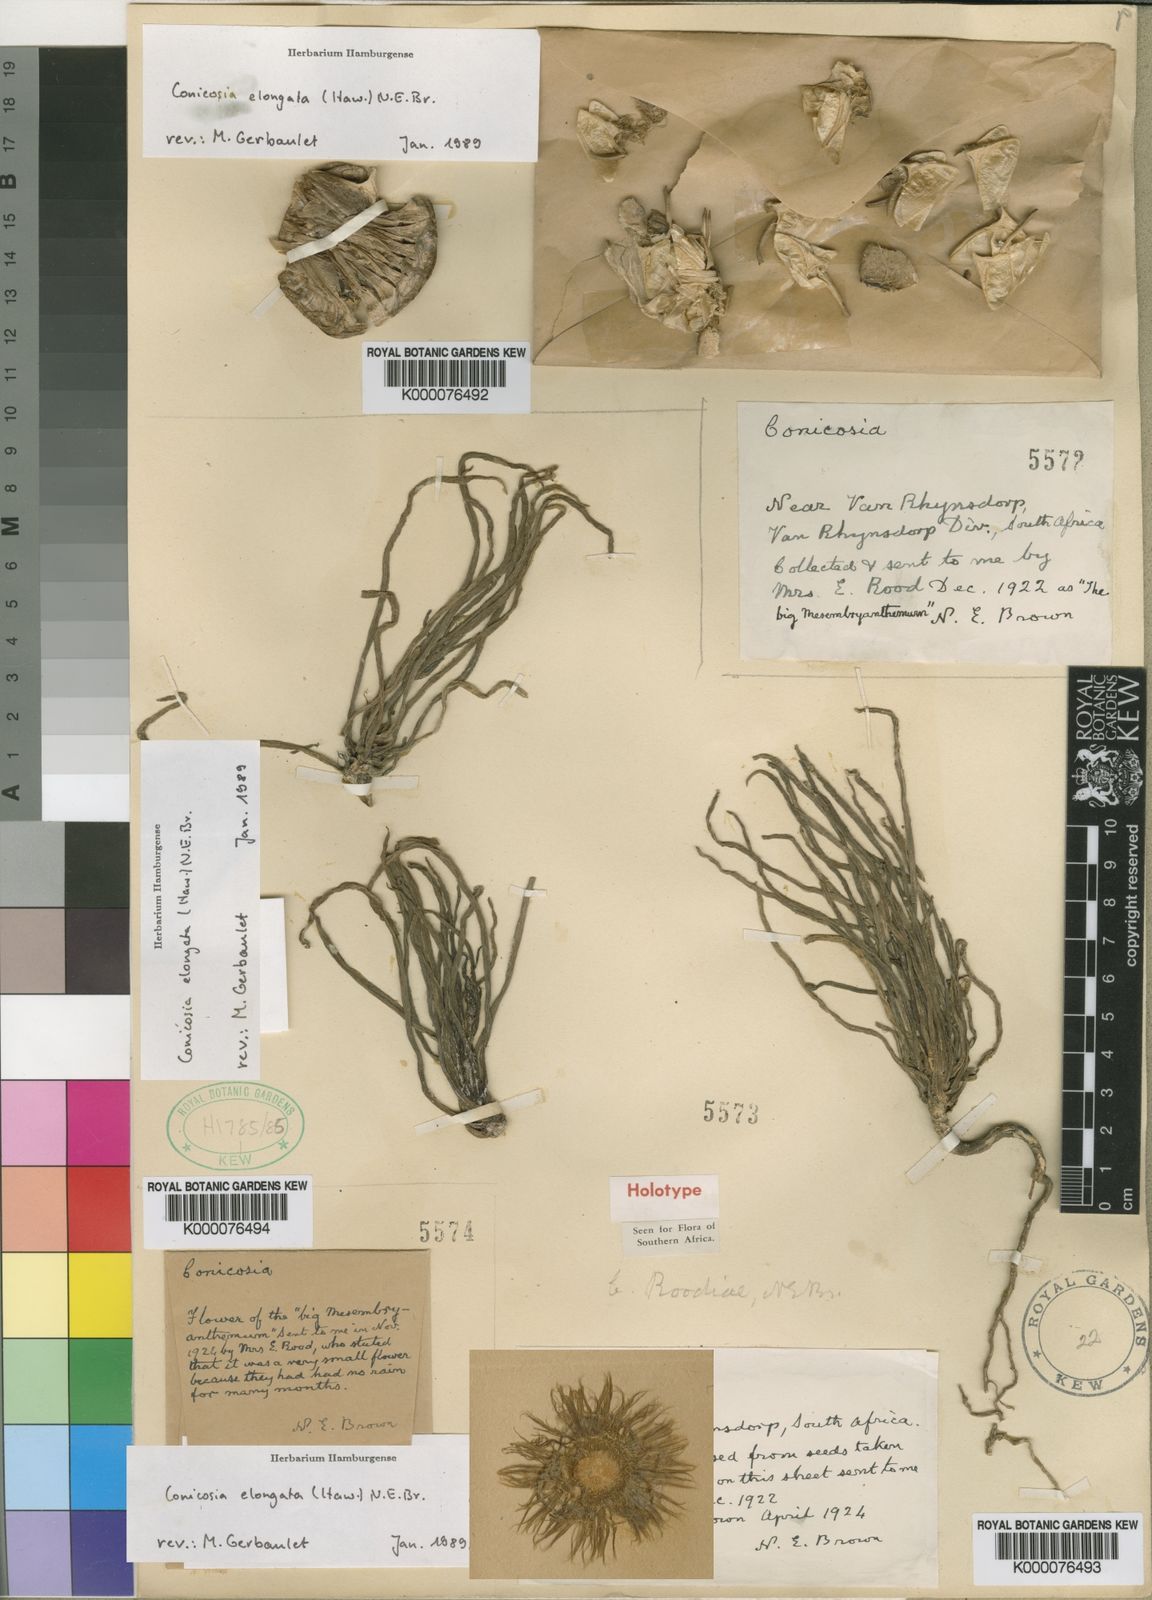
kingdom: Plantae
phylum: Tracheophyta
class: Magnoliopsida
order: Caryophyllales
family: Aizoaceae
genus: Conicosia
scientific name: Conicosia
